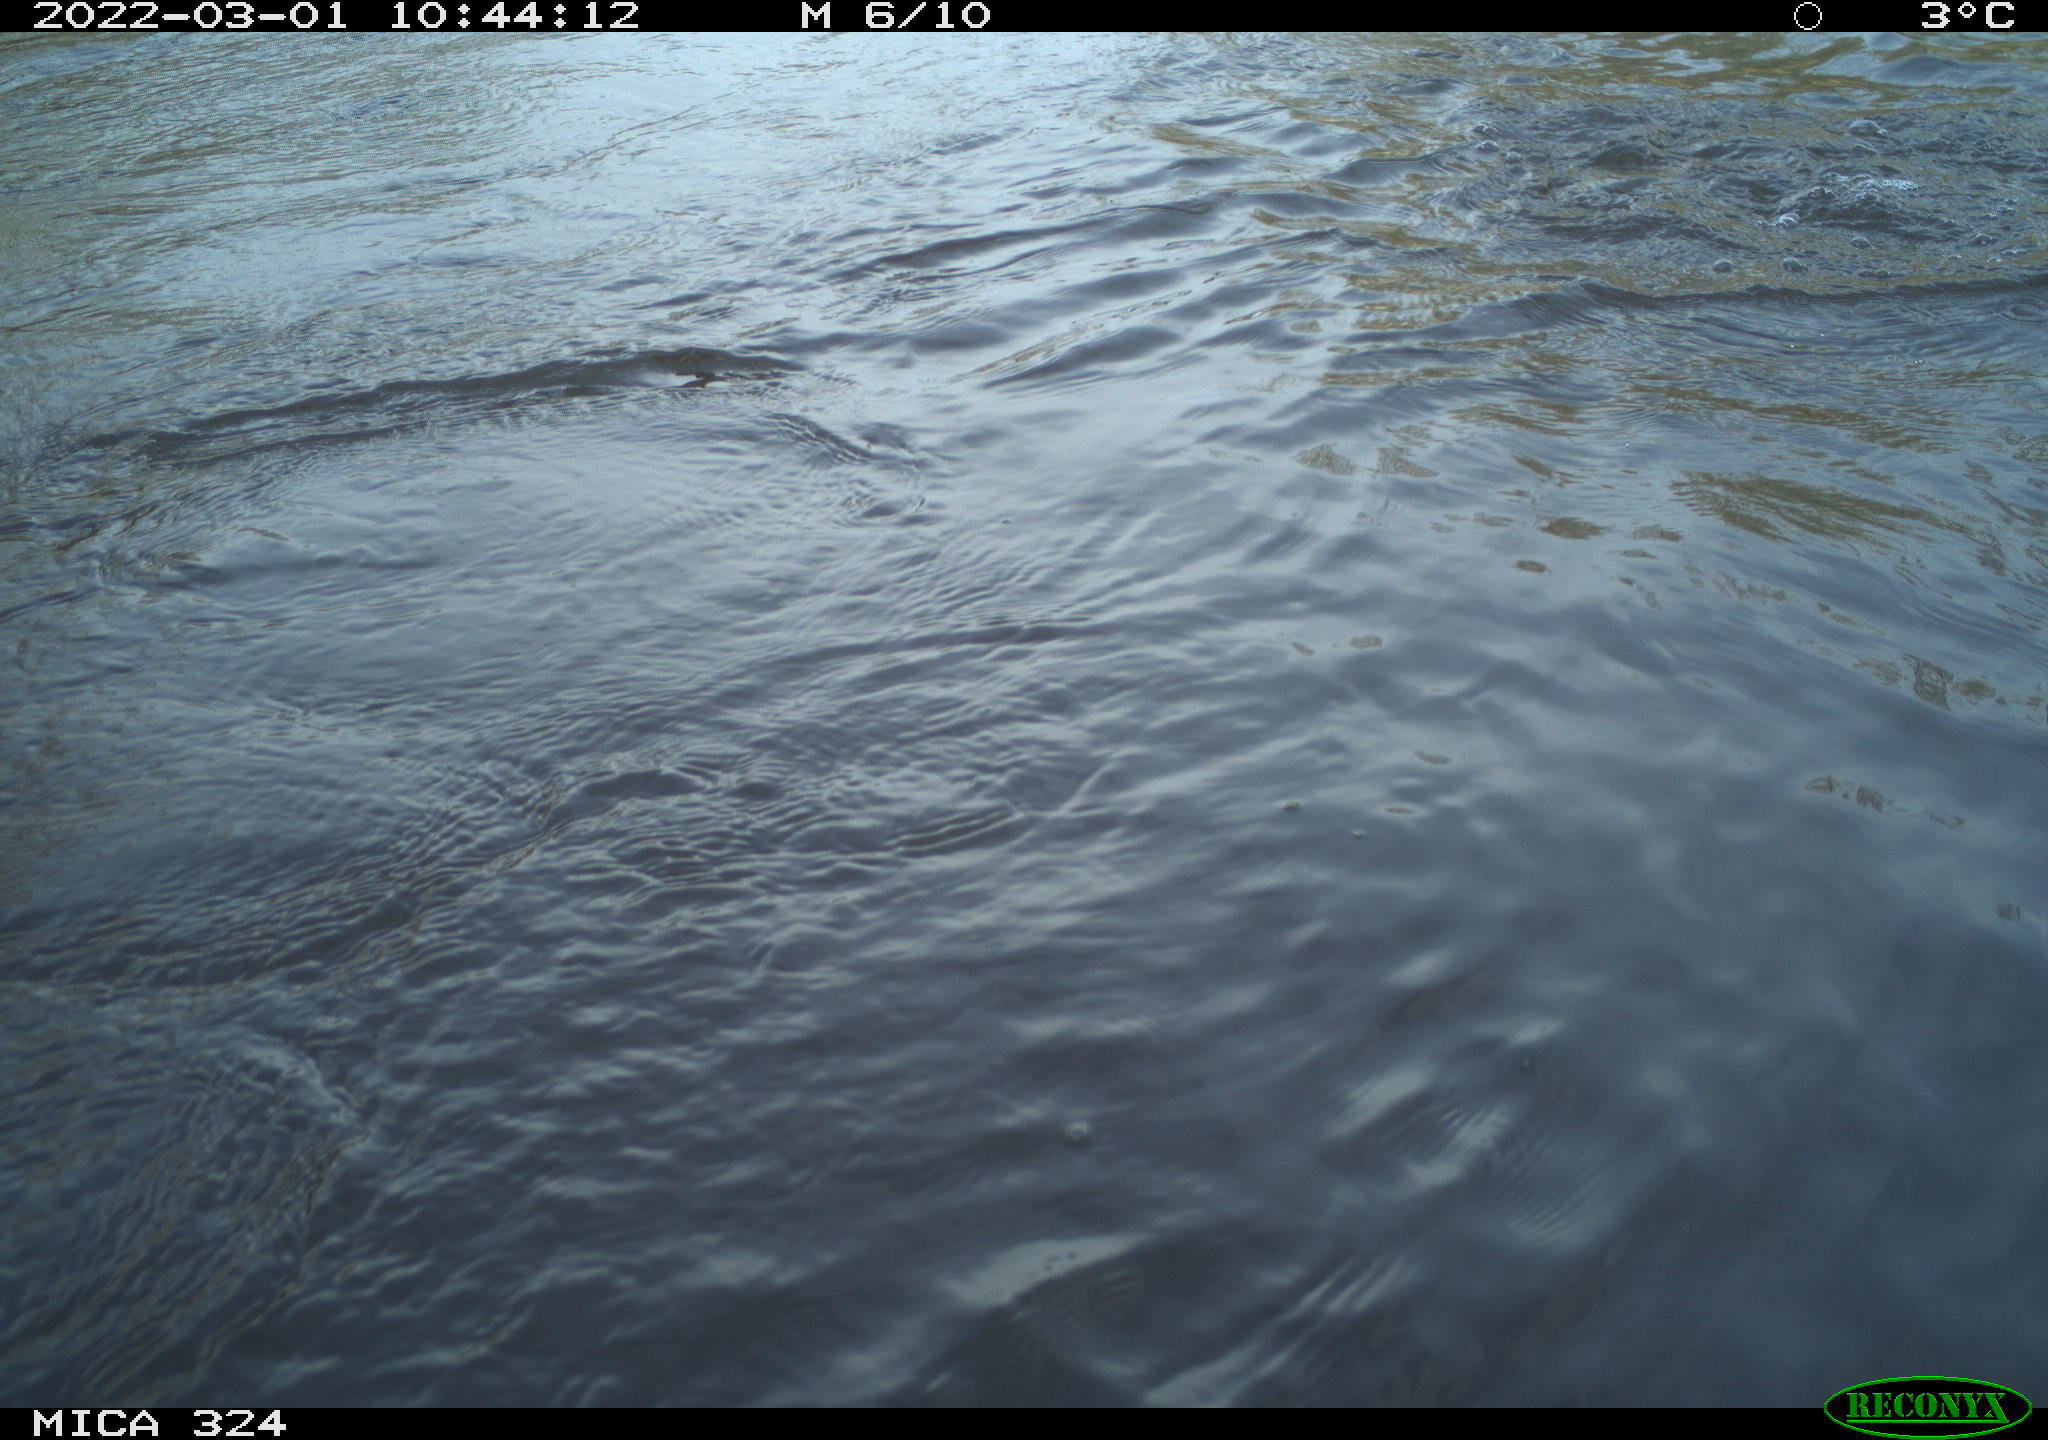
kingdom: Animalia
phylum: Chordata
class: Aves
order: Suliformes
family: Phalacrocoracidae
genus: Phalacrocorax
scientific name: Phalacrocorax carbo
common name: Great cormorant
